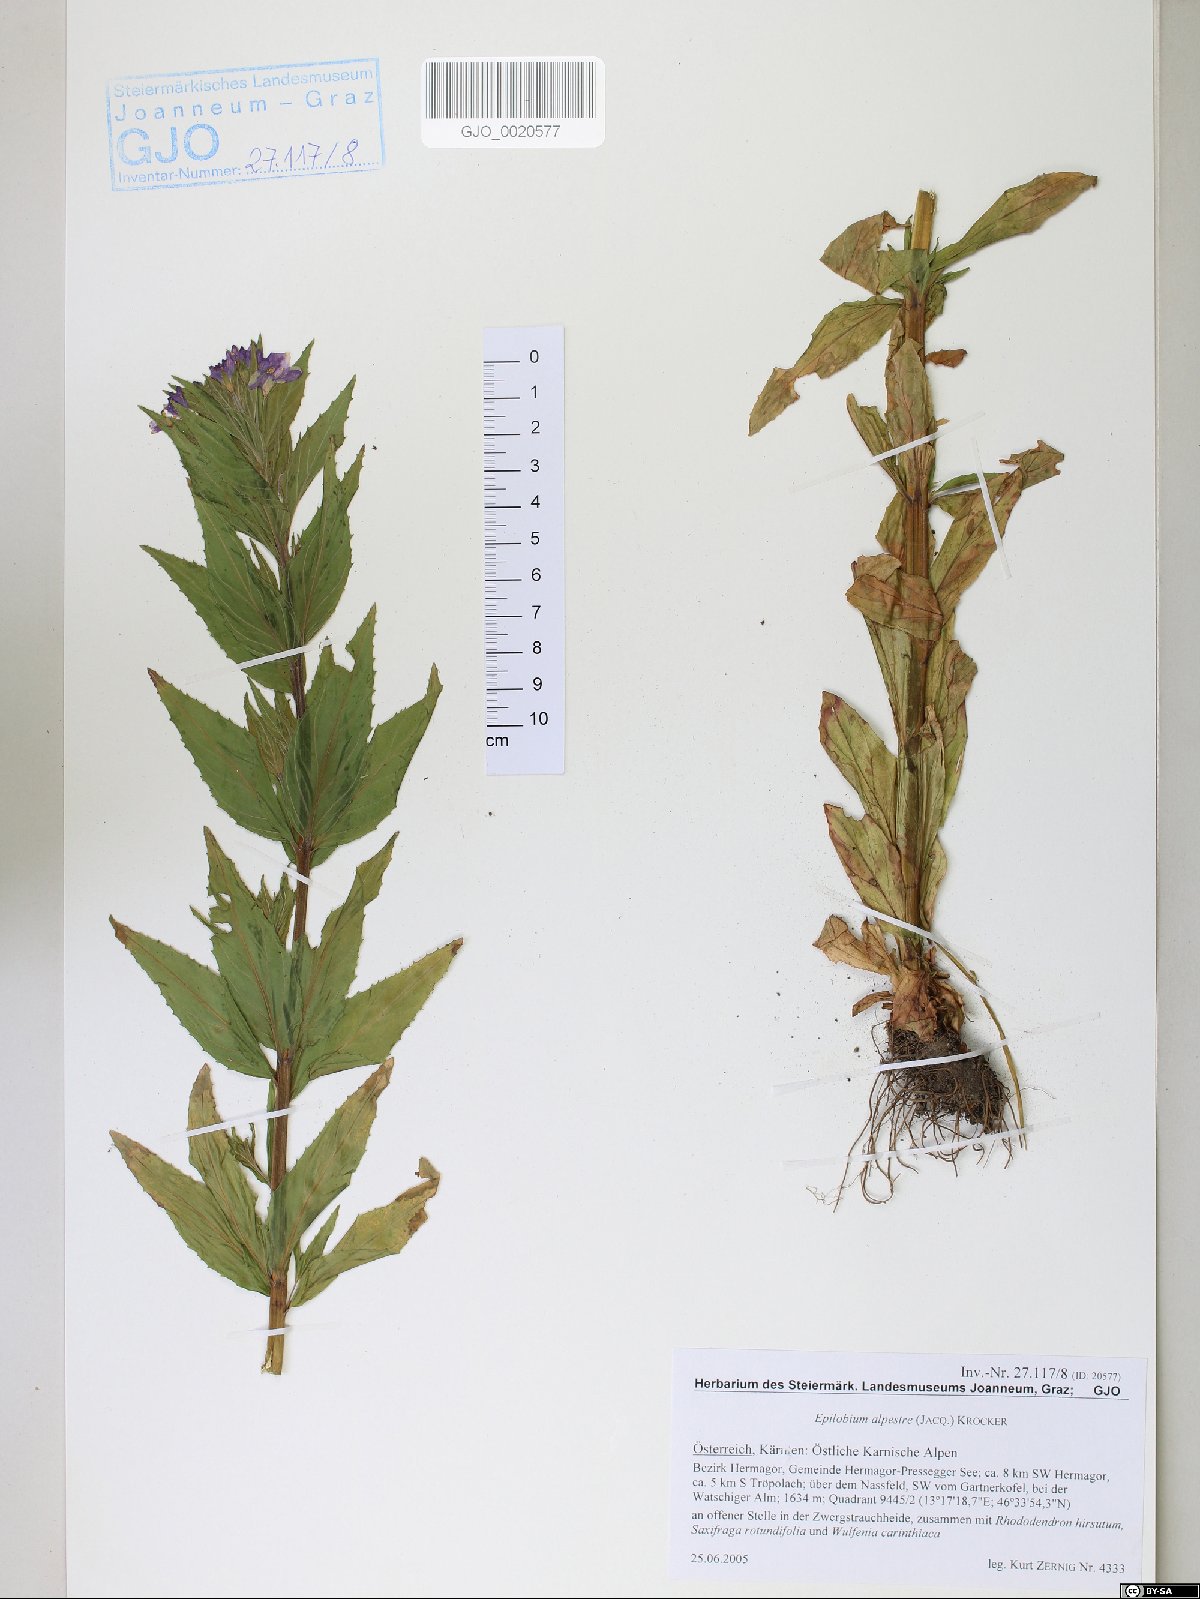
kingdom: Plantae
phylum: Tracheophyta
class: Magnoliopsida
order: Myrtales
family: Onagraceae
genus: Epilobium
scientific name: Epilobium alpestre
